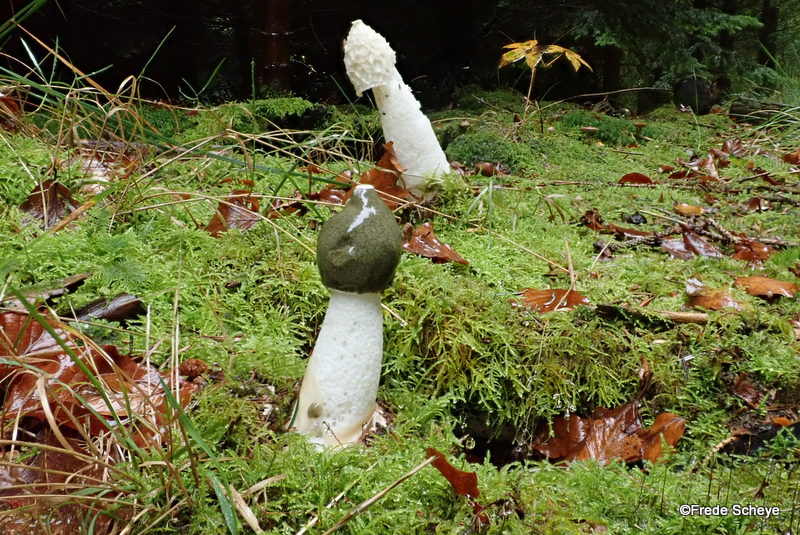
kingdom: Fungi
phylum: Basidiomycota
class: Agaricomycetes
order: Phallales
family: Phallaceae
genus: Phallus
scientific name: Phallus impudicus
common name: almindelig stinksvamp
